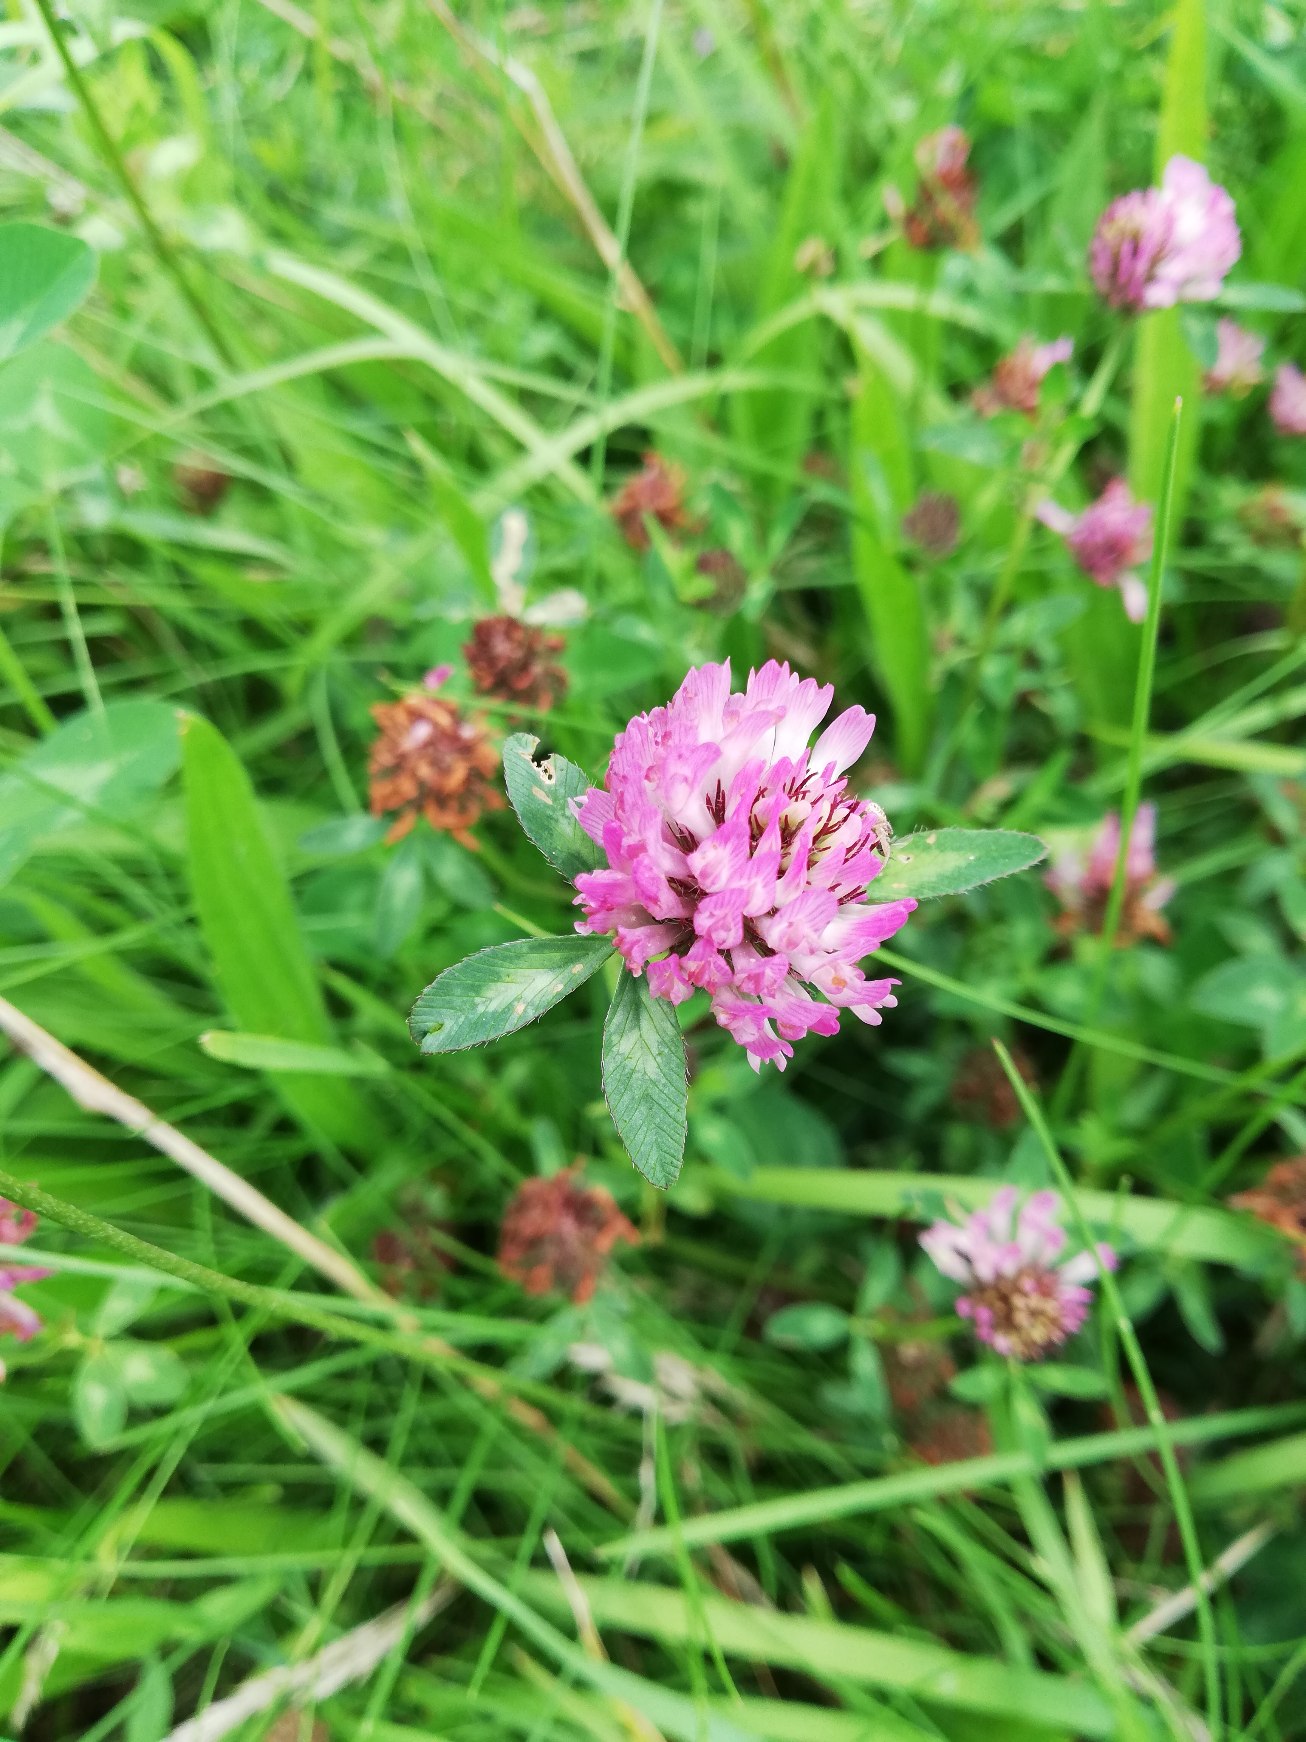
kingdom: Plantae
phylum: Tracheophyta
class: Magnoliopsida
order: Fabales
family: Fabaceae
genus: Trifolium
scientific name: Trifolium pratense
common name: Rød-kløver
